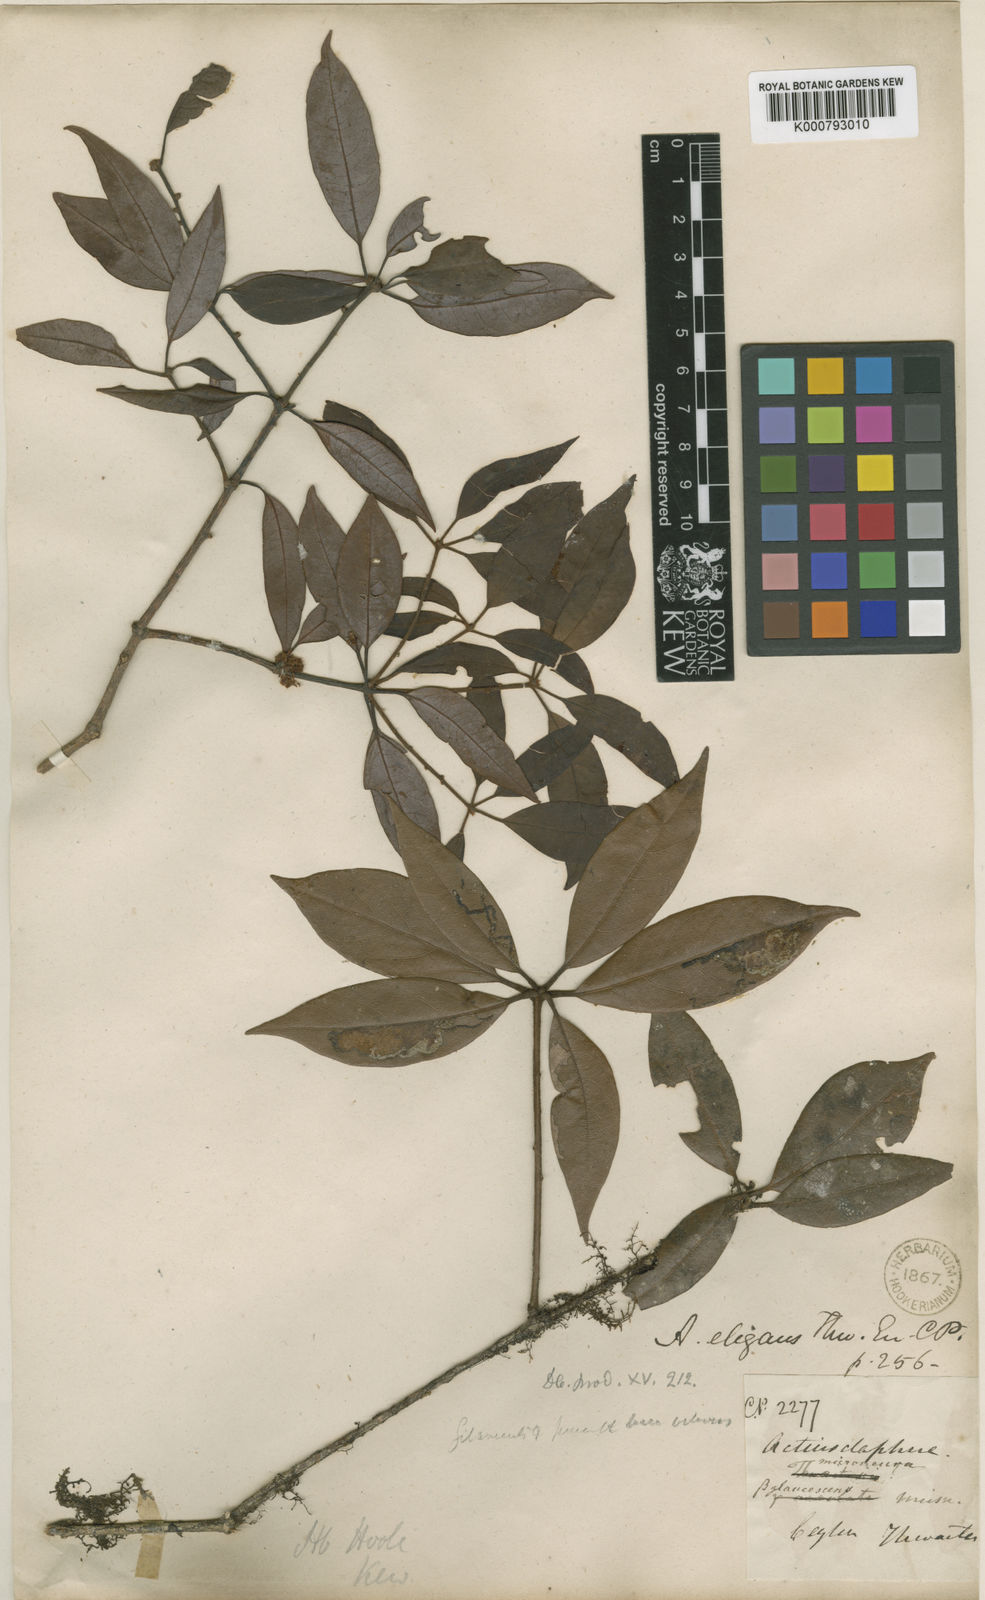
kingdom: Plantae
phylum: Tracheophyta
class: Magnoliopsida
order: Laurales
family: Lauraceae
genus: Actinodaphne
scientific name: Actinodaphne elegans
